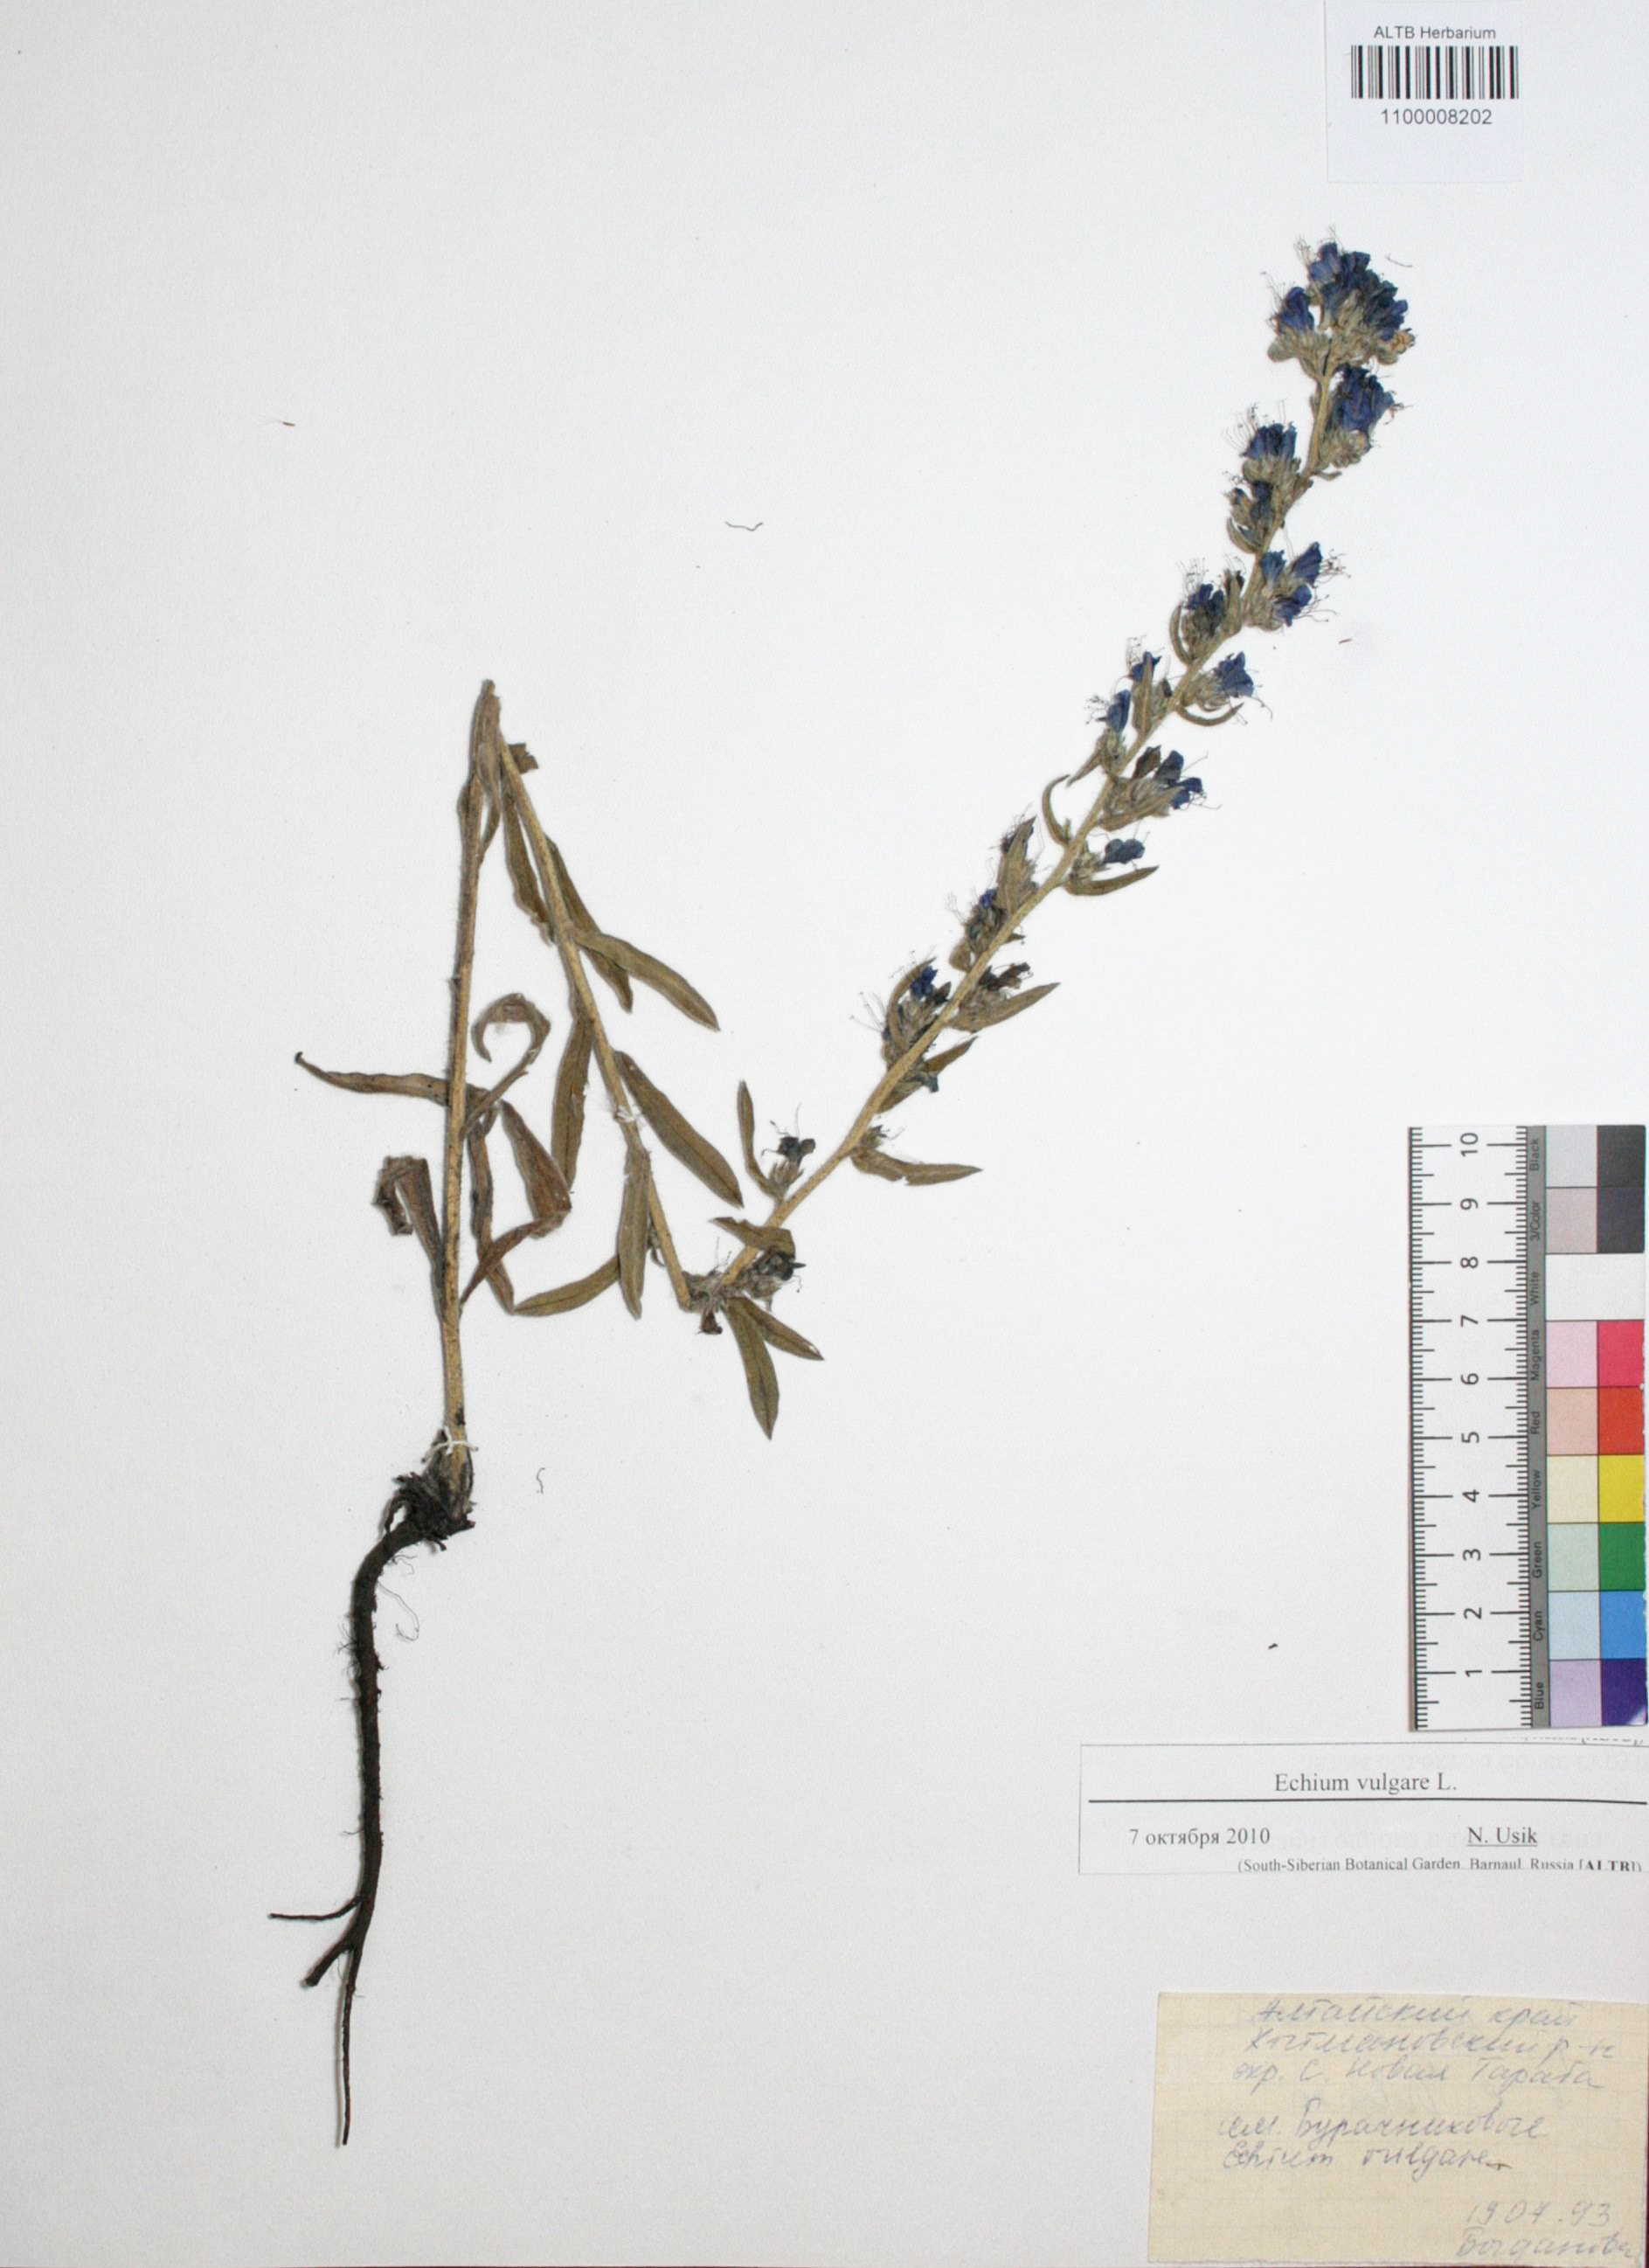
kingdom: Plantae
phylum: Tracheophyta
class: Magnoliopsida
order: Boraginales
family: Boraginaceae
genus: Echium
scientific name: Echium vulgare
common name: Common viper's bugloss
